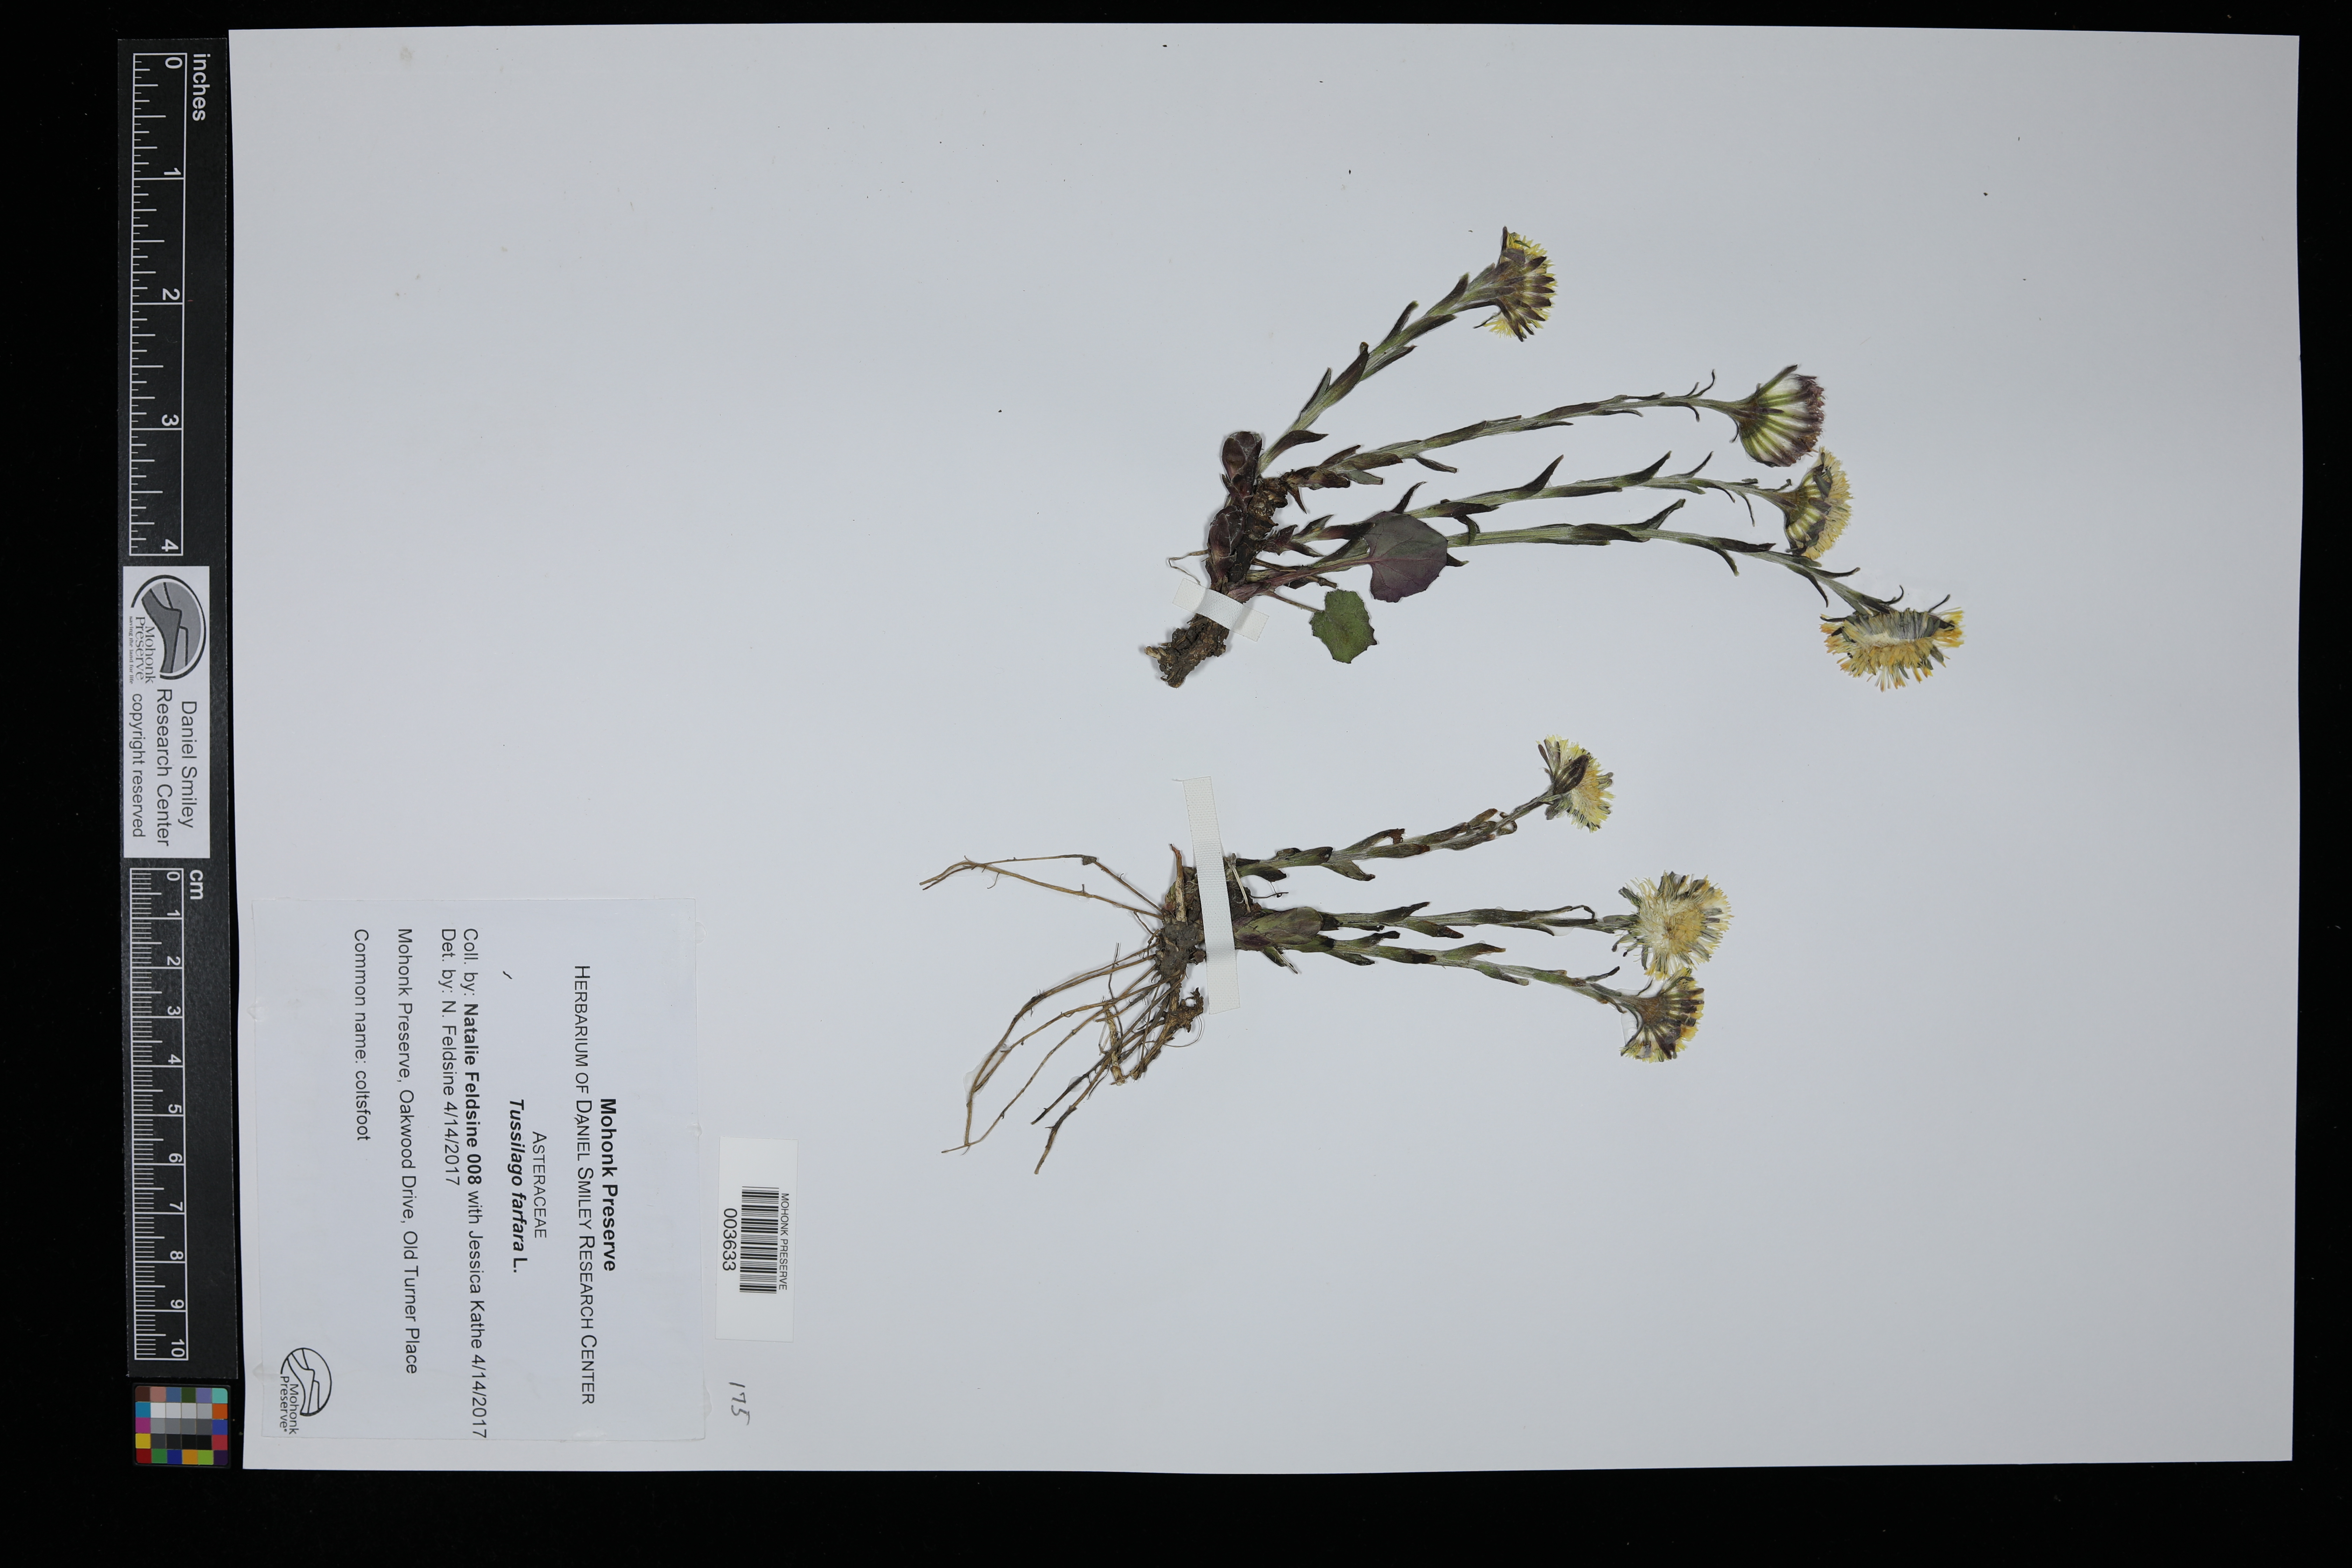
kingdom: Plantae
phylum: Tracheophyta
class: Magnoliopsida
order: Asterales
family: Asteraceae
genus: Tussilago
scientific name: Tussilago farfara
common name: Coltsfoot
